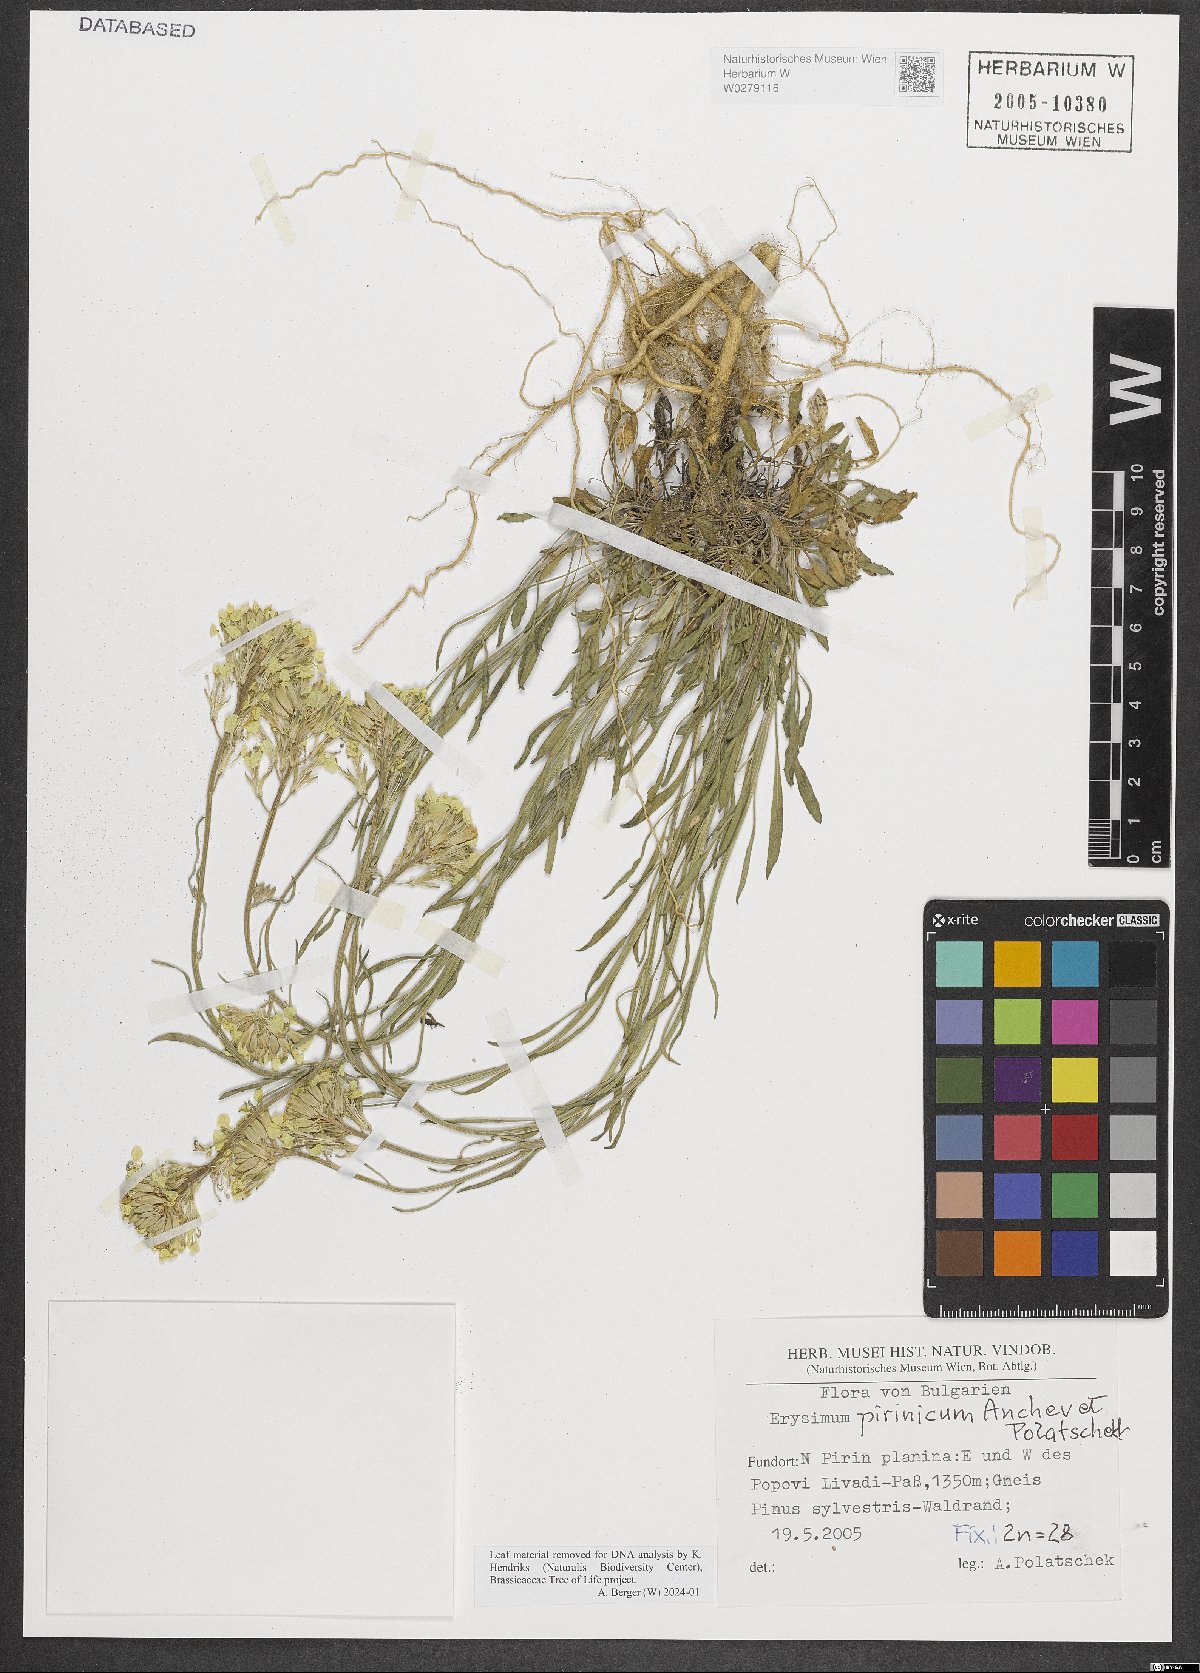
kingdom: Plantae
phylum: Tracheophyta
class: Magnoliopsida
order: Brassicales
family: Brassicaceae
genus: Erysimum
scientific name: Erysimum pirinicum
